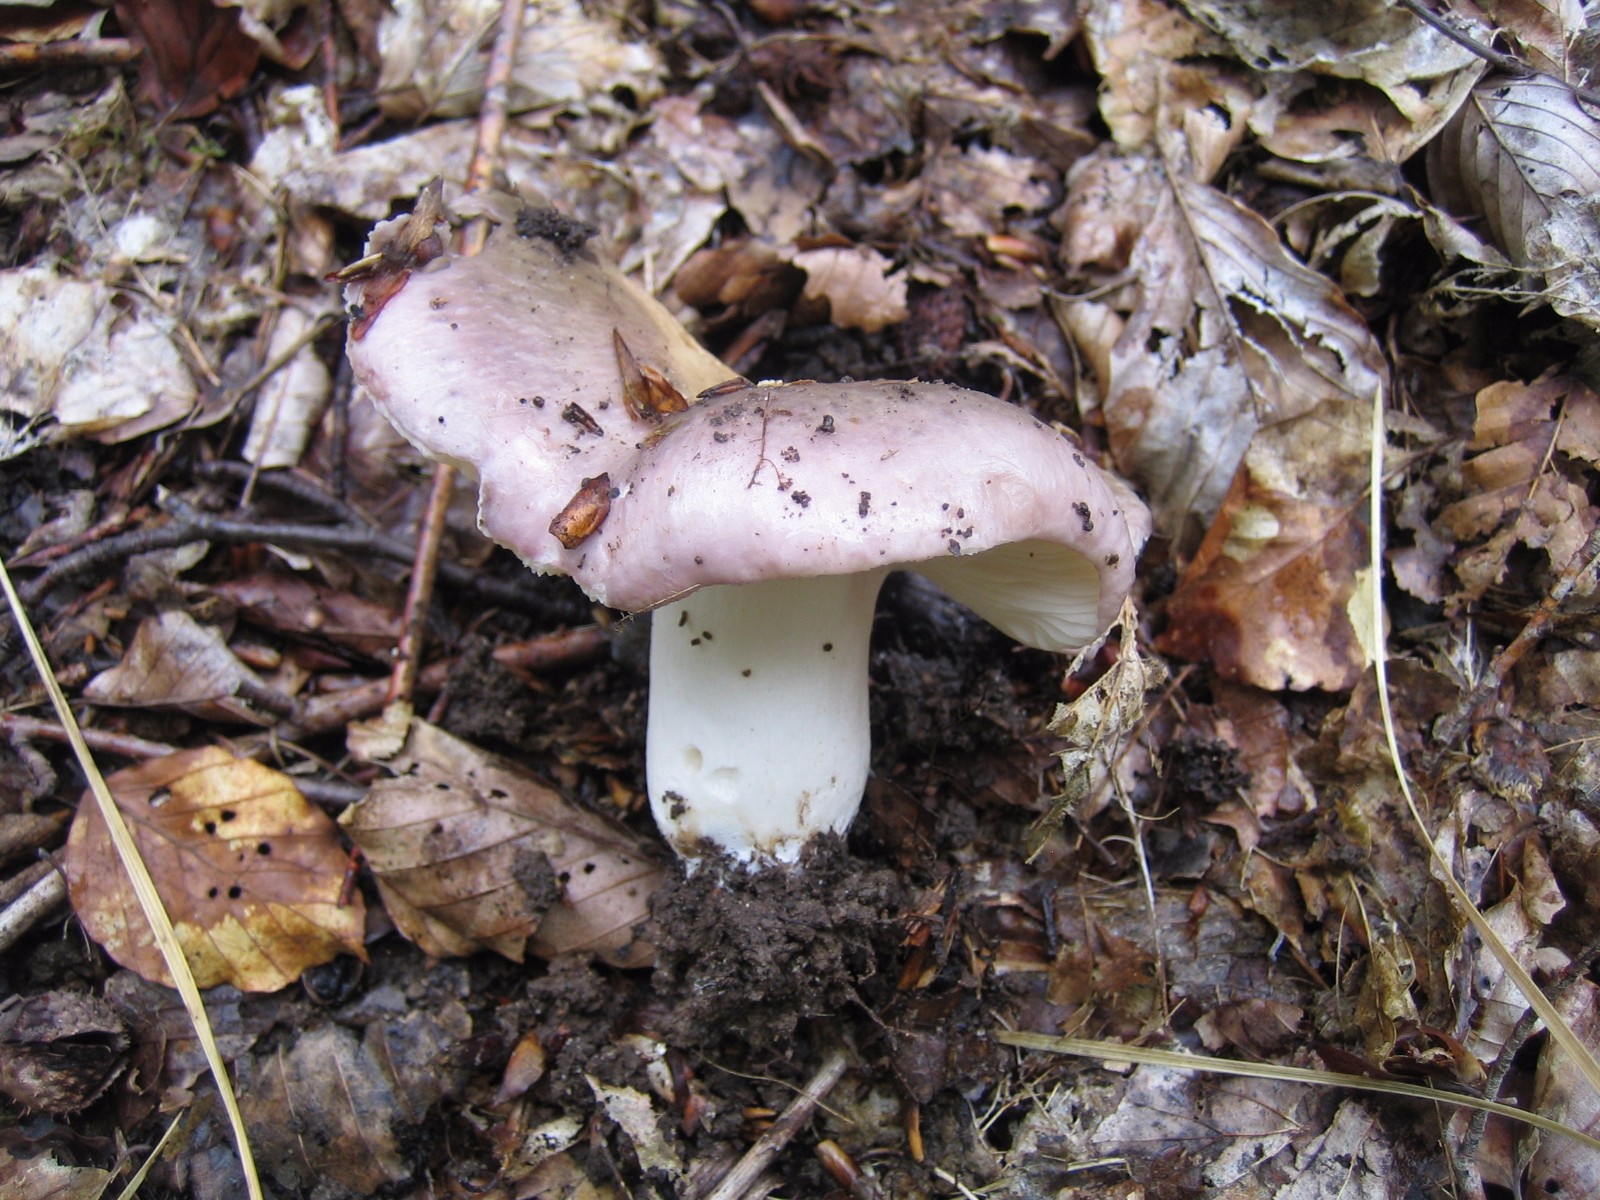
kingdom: Fungi
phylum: Basidiomycota
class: Agaricomycetes
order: Russulales
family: Russulaceae
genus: Russula
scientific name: Russula cyanoxantha
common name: broget skørhat
